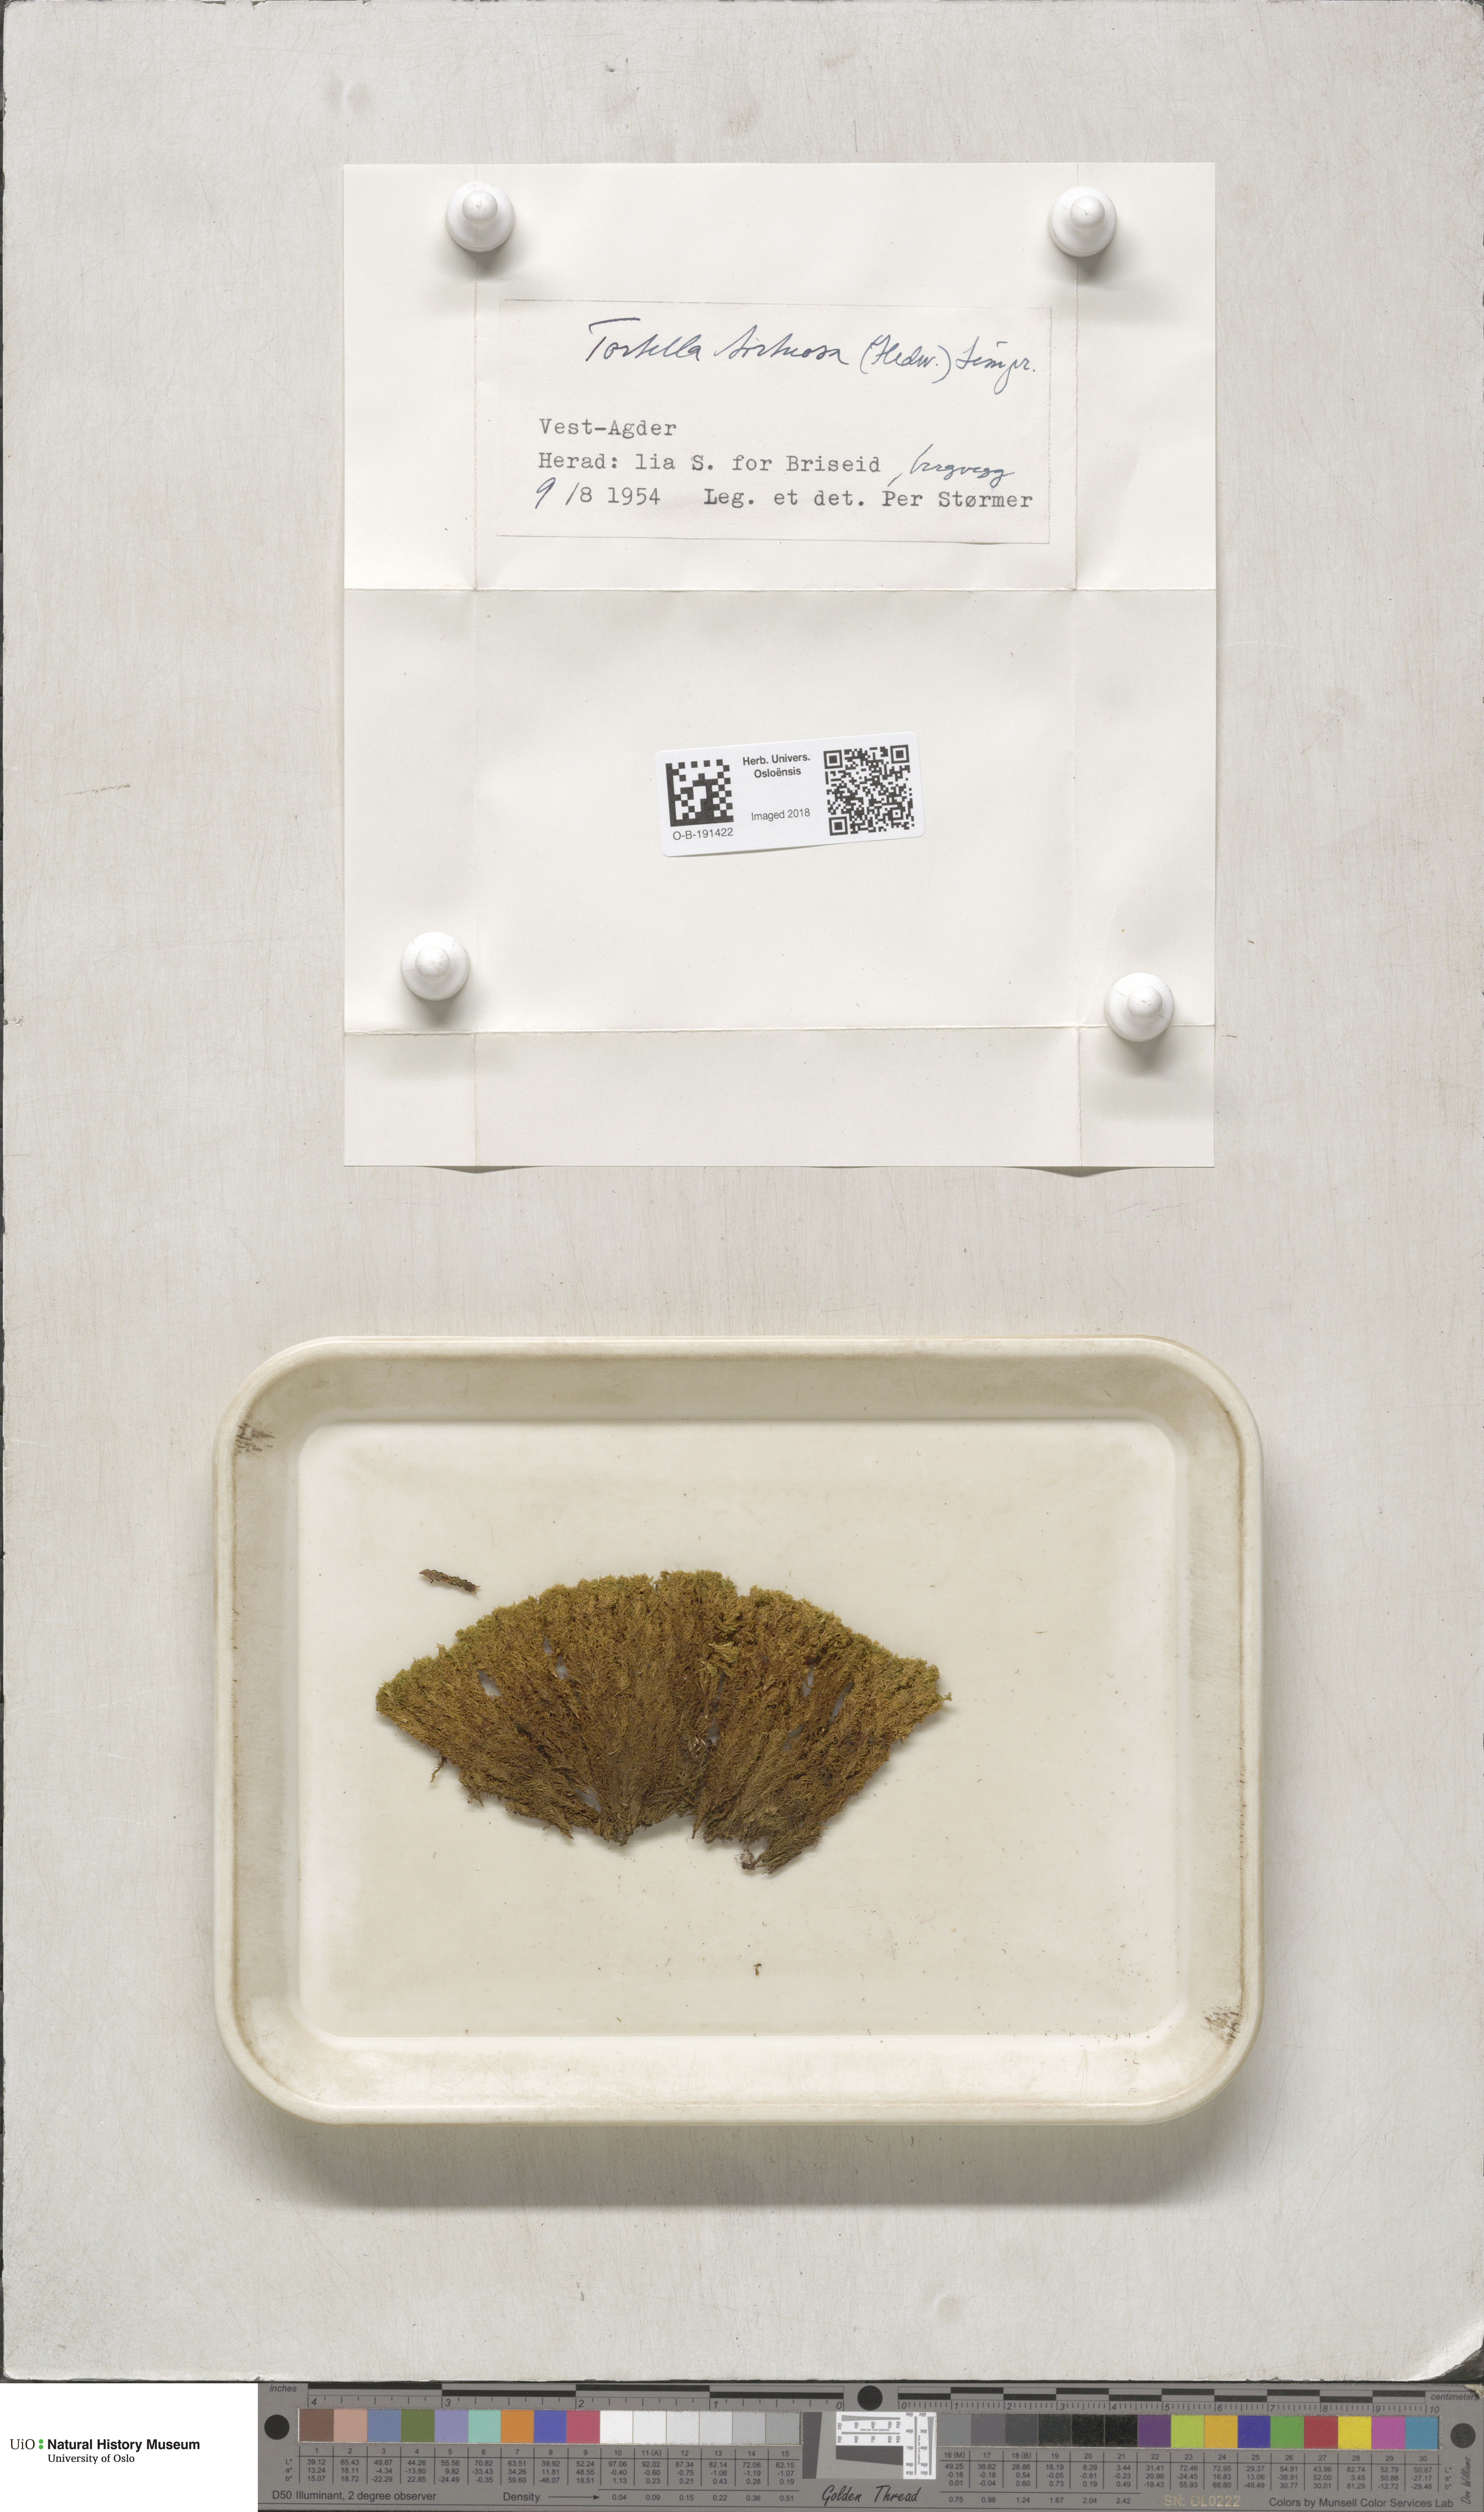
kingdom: Plantae
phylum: Bryophyta
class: Bryopsida
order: Pottiales
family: Pottiaceae
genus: Tortella
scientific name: Tortella tortuosa
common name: Frizzled crisp moss
